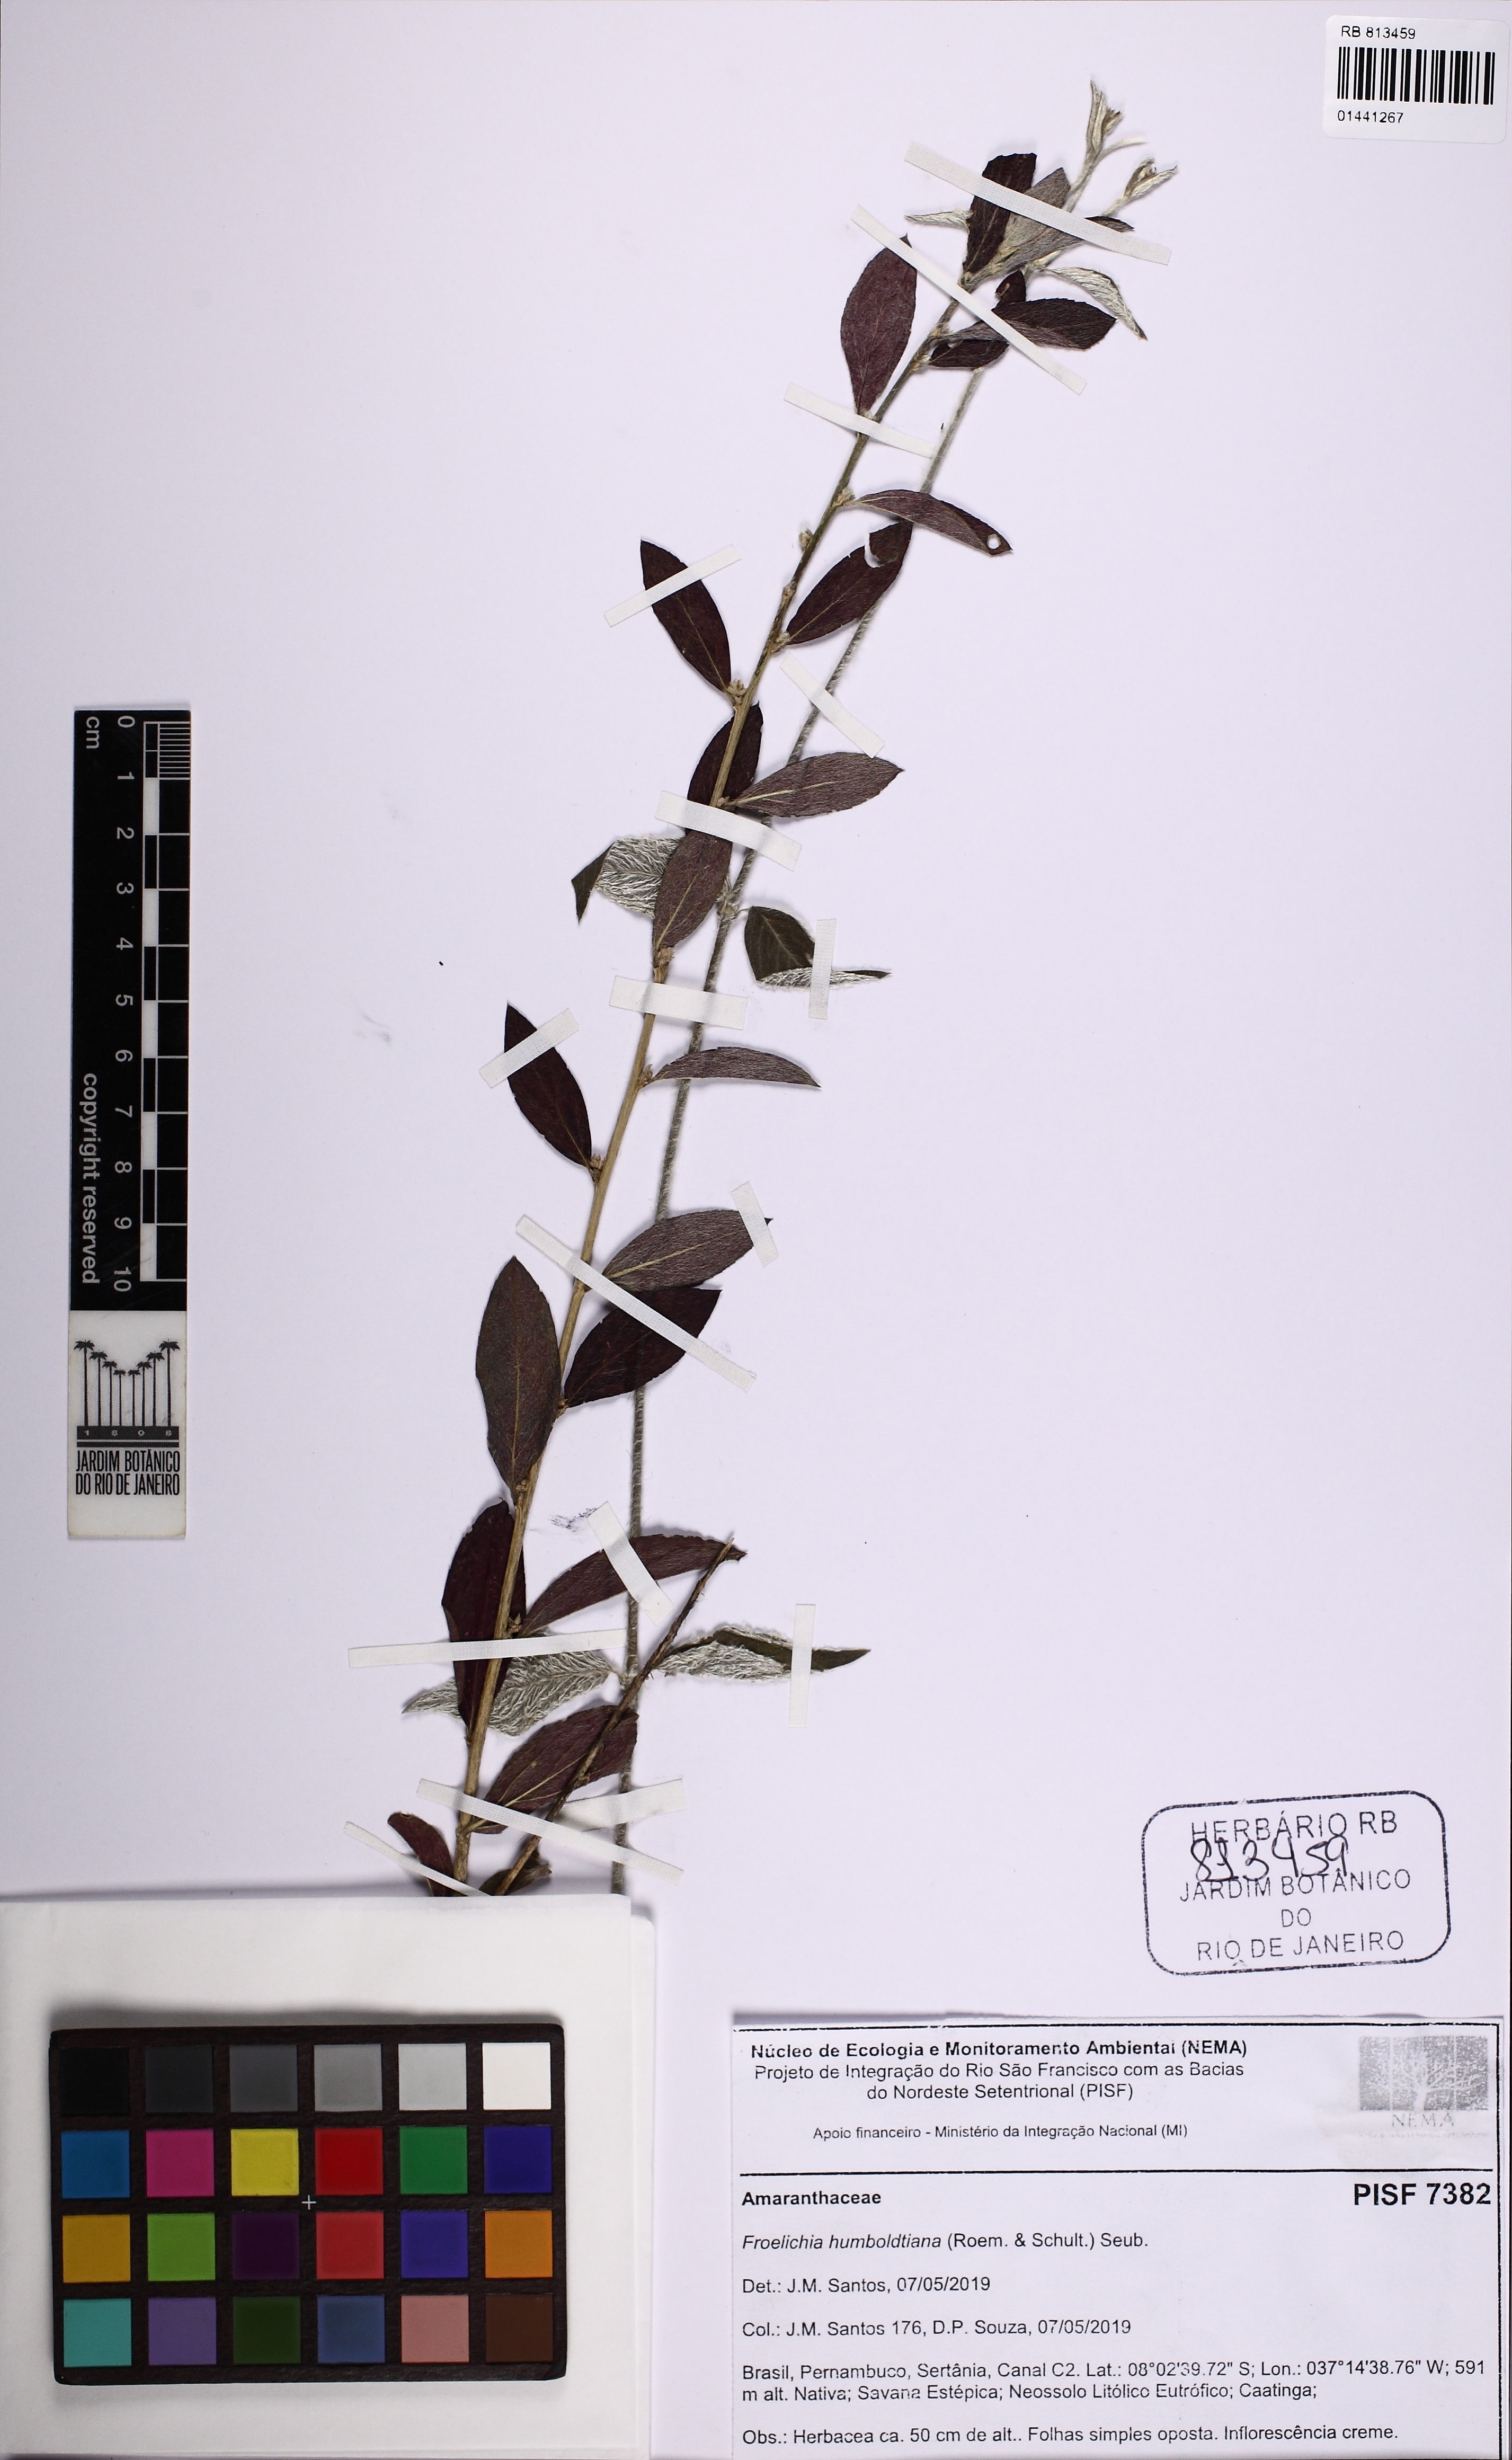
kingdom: Plantae
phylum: Tracheophyta
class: Magnoliopsida
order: Caryophyllales
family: Amaranthaceae
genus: Froelichia
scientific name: Froelichia humboldtiana
